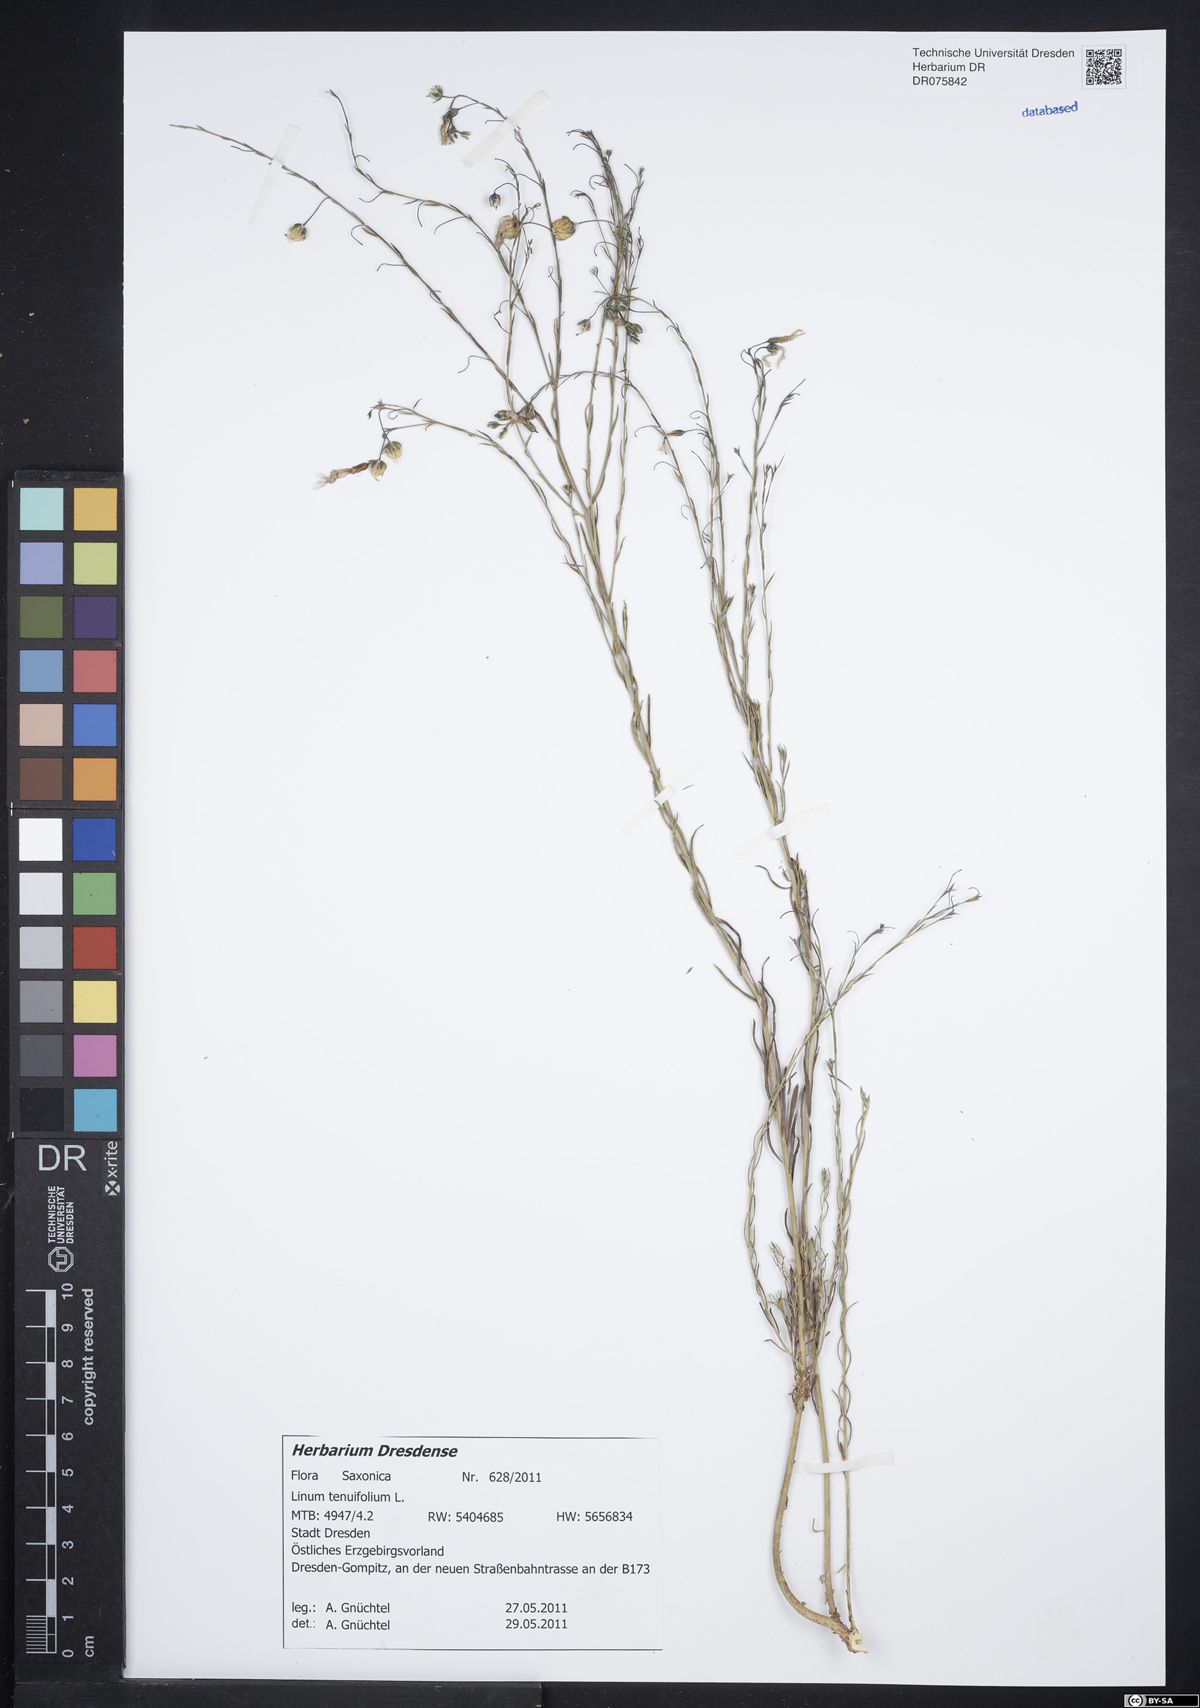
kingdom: Plantae
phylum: Tracheophyta
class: Magnoliopsida
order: Malpighiales
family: Linaceae
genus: Linum
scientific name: Linum tenuifolium
